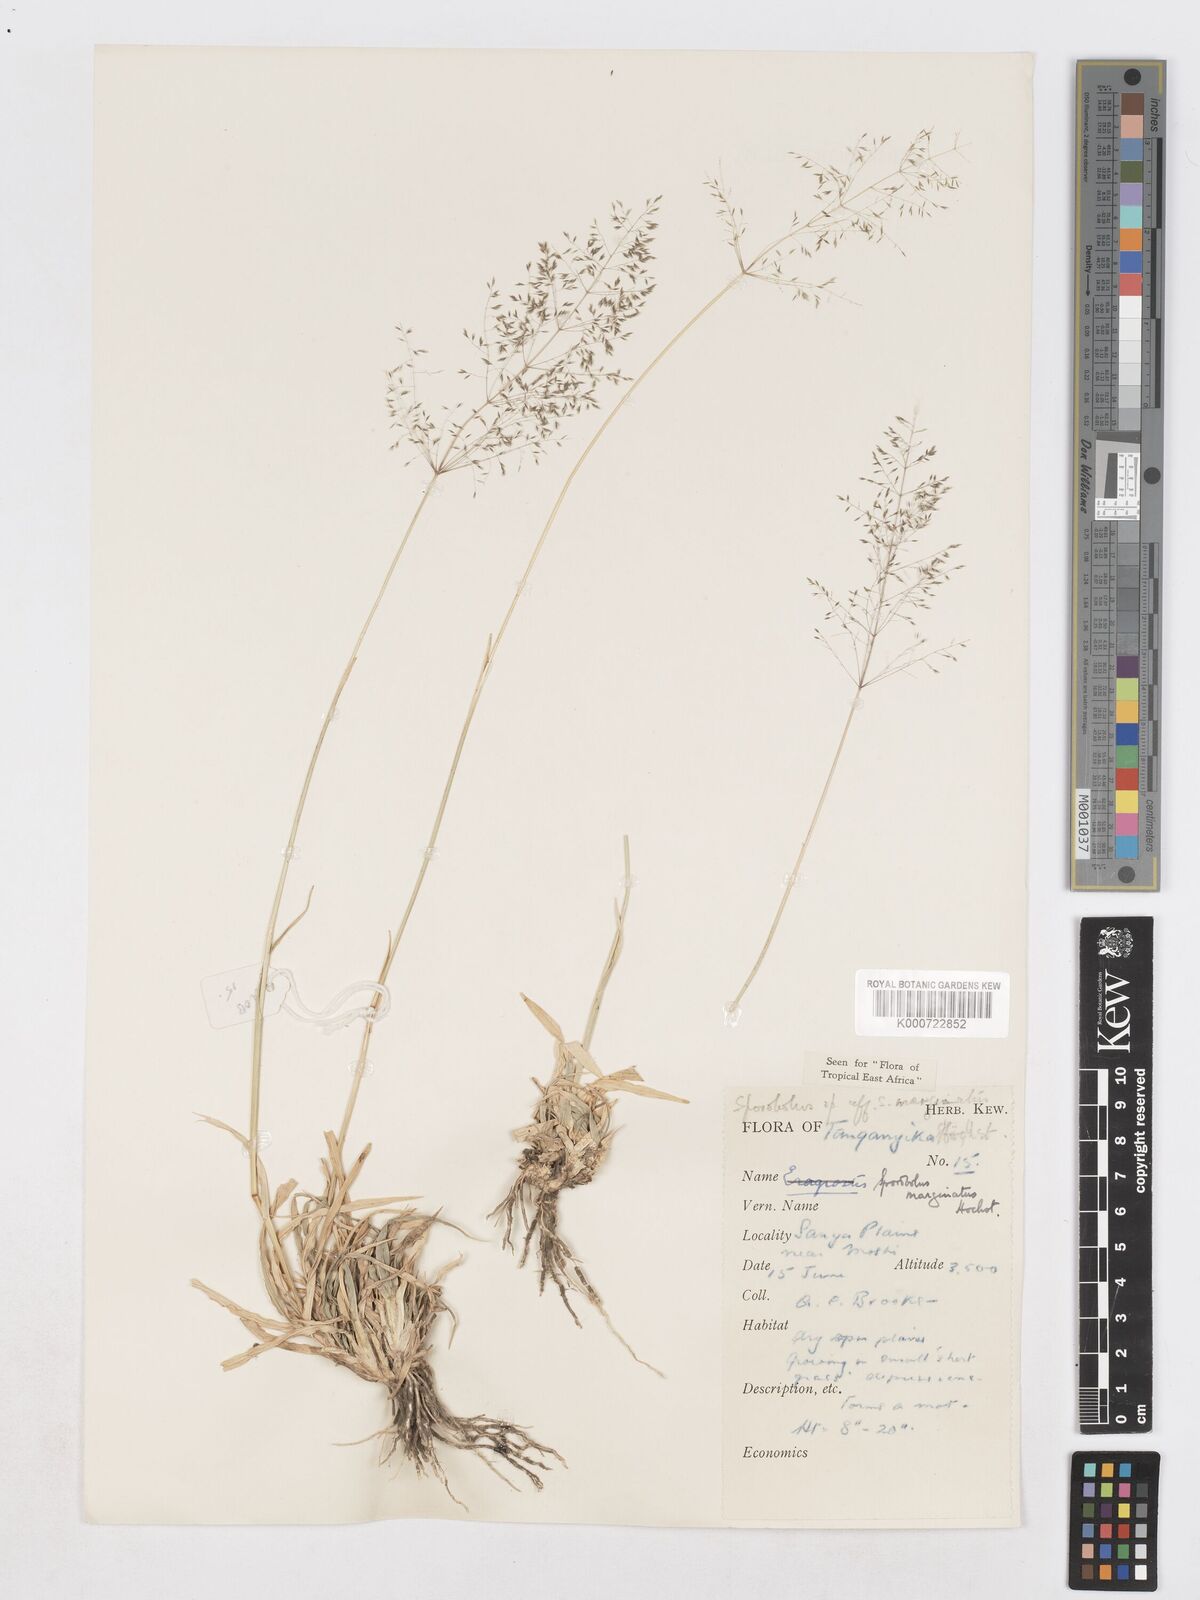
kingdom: Plantae
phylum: Tracheophyta
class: Liliopsida
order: Poales
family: Poaceae
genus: Sporobolus
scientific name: Sporobolus ioclados
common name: Pan dropseed
